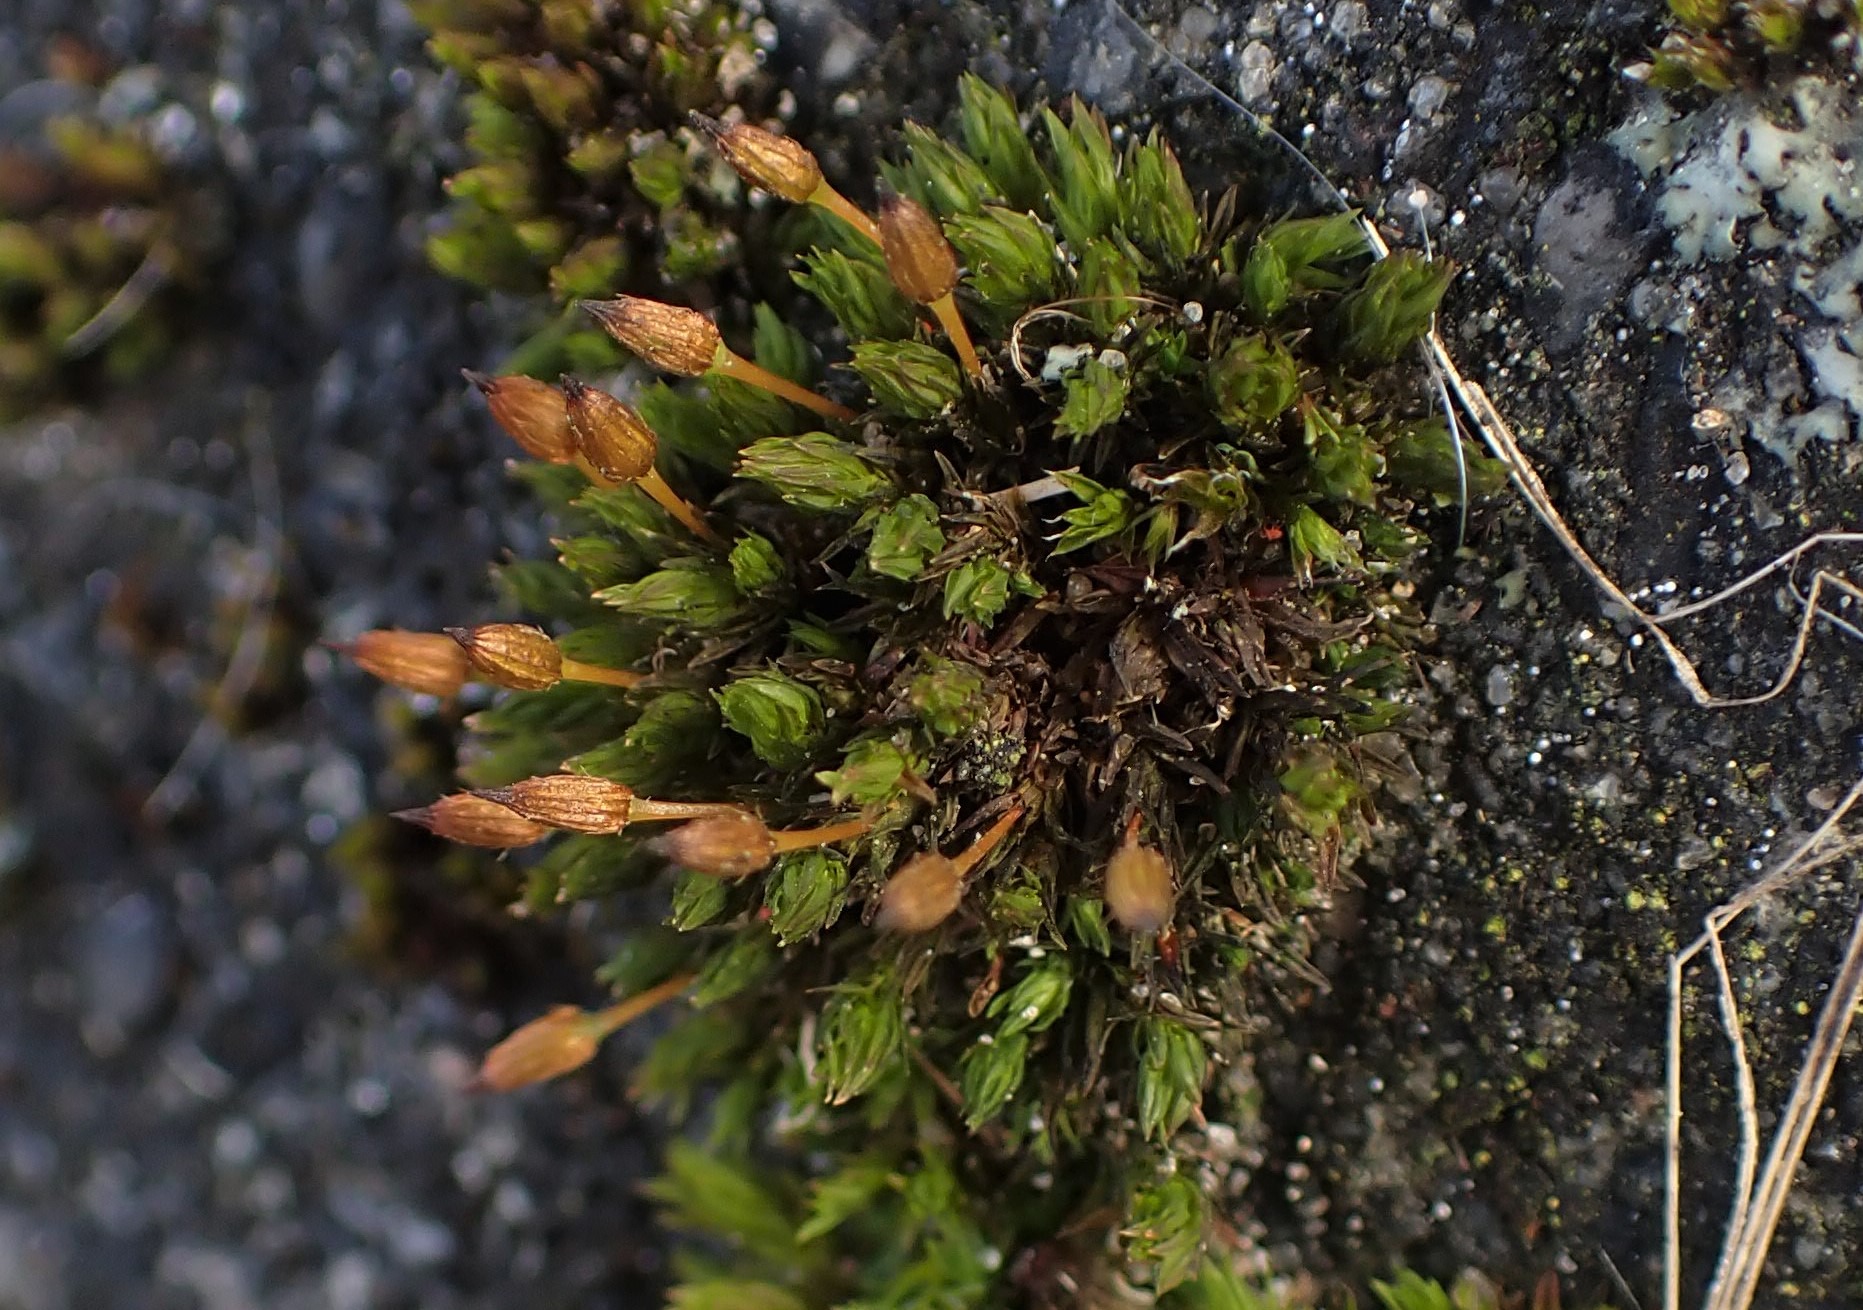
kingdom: Plantae
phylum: Bryophyta
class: Bryopsida
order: Orthotrichales
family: Orthotrichaceae
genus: Orthotrichum
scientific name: Orthotrichum anomalum
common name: Mørk furehætte
